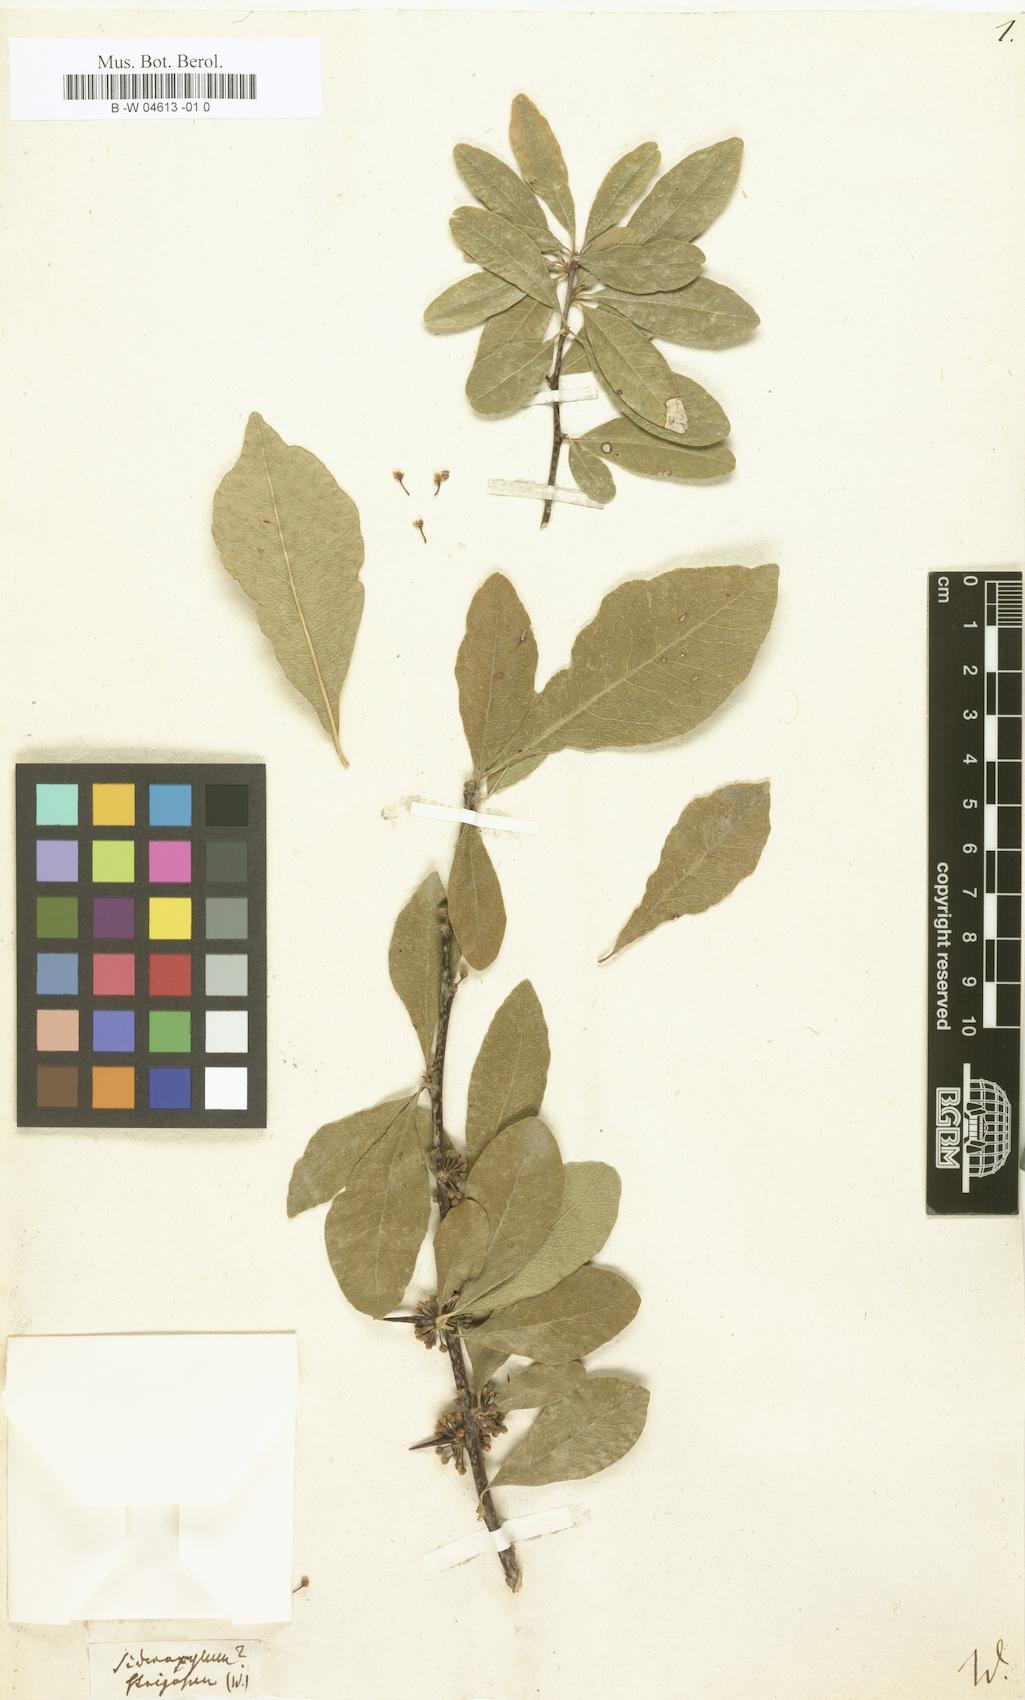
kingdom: Plantae
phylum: Tracheophyta
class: Magnoliopsida
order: Ericales
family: Sapotaceae
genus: Sideroxylon
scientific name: Sideroxylon strigosum
